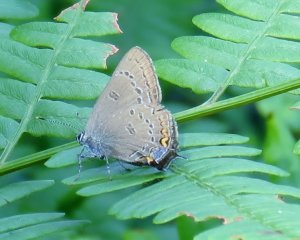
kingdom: Animalia
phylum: Arthropoda
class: Insecta
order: Lepidoptera
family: Lycaenidae
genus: Satyrium
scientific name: Satyrium edwardsii
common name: Edwards' Hairstreak
